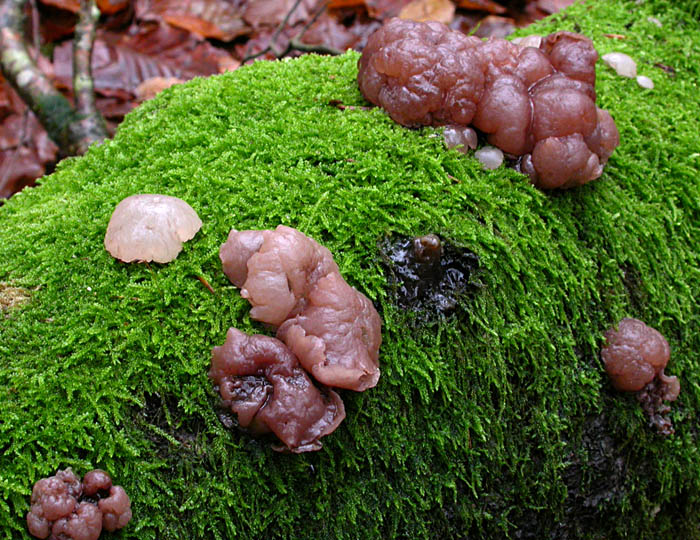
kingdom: Fungi
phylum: Ascomycota
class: Leotiomycetes
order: Helotiales
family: Gelatinodiscaceae
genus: Neobulgaria
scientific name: Neobulgaria pura
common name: bleg bævreskive
